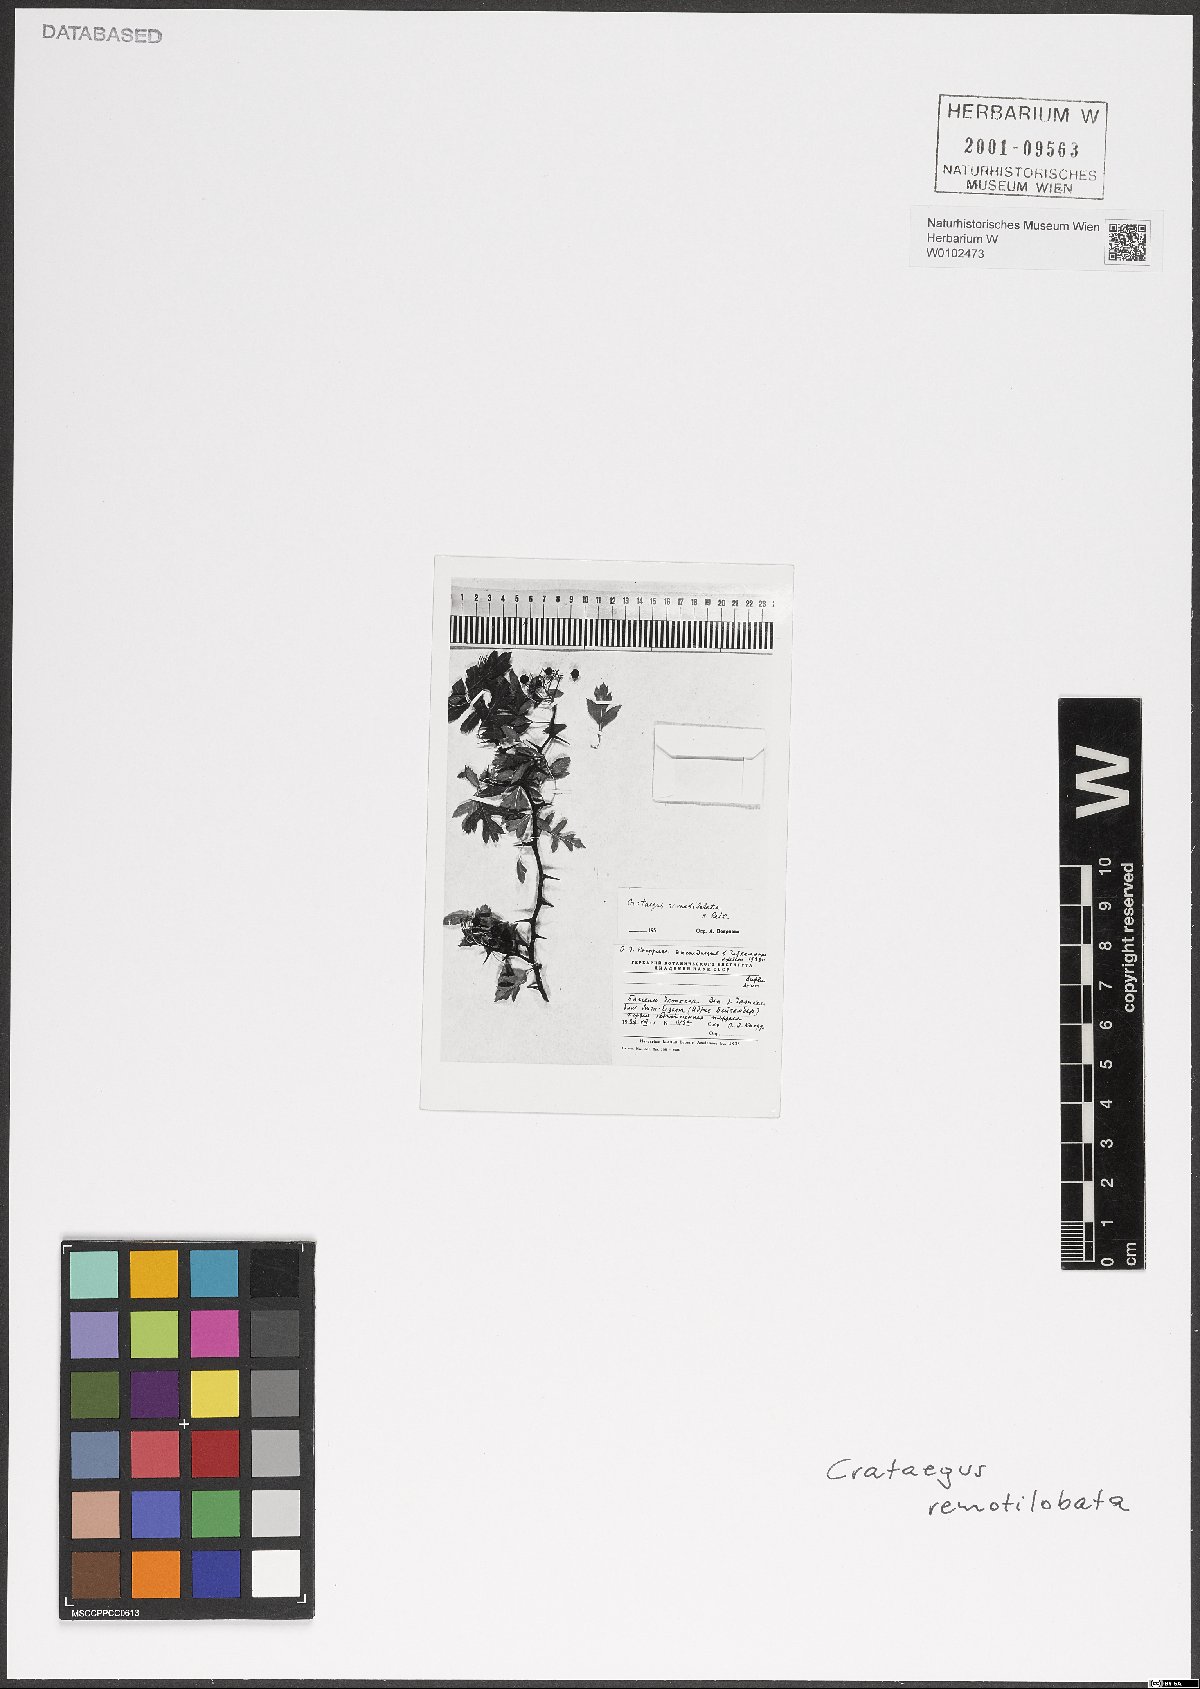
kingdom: Plantae
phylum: Tracheophyta
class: Magnoliopsida
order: Rosales
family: Rosaceae
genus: Crataegus
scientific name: Crataegus remotilobata
